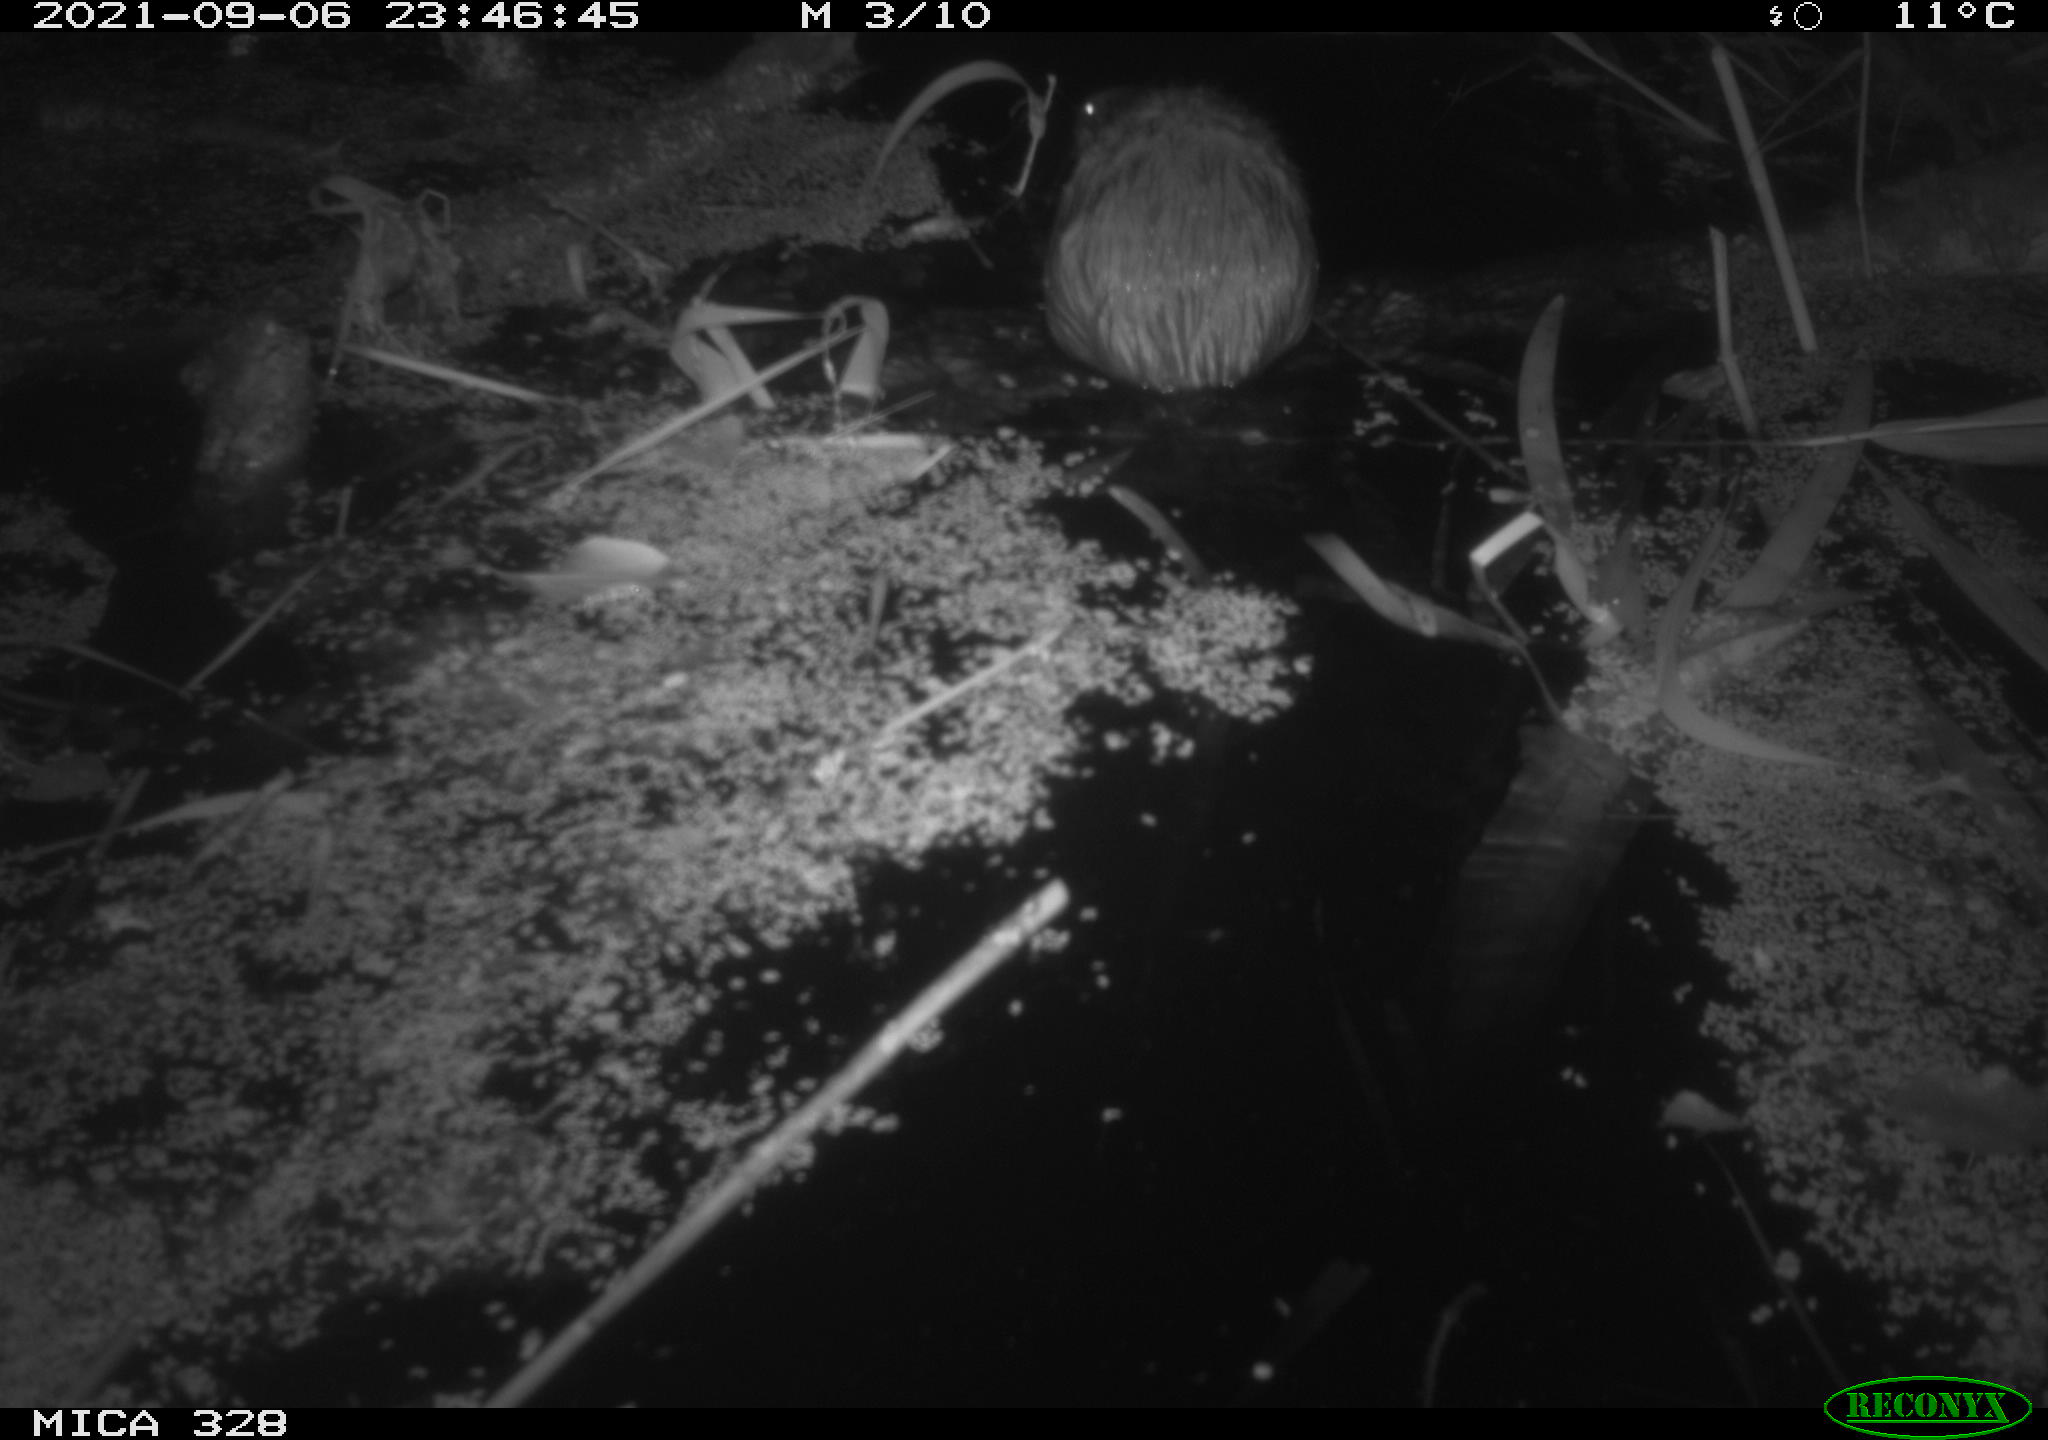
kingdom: Animalia
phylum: Chordata
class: Mammalia
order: Rodentia
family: Cricetidae
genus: Ondatra
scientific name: Ondatra zibethicus
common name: Muskrat
